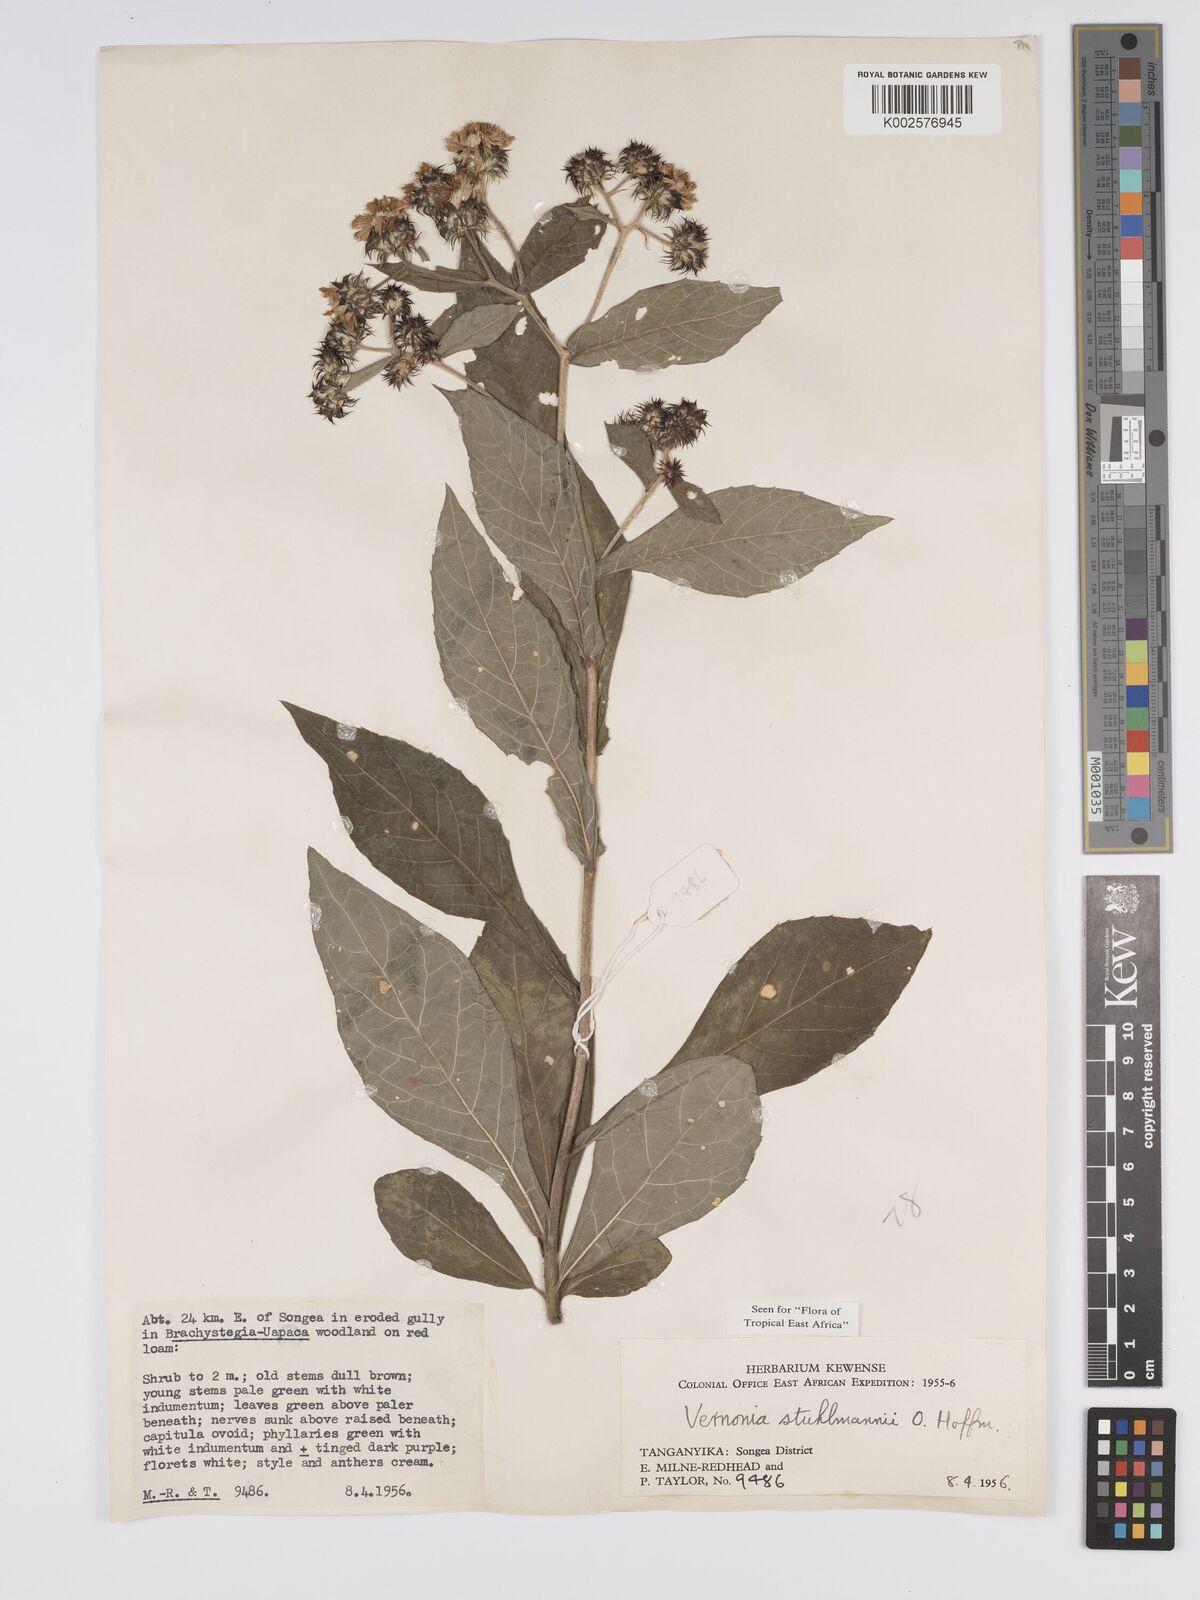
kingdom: Plantae
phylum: Tracheophyta
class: Magnoliopsida
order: Asterales
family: Asteraceae
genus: Vernonia
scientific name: Vernonia stuhlmannii
